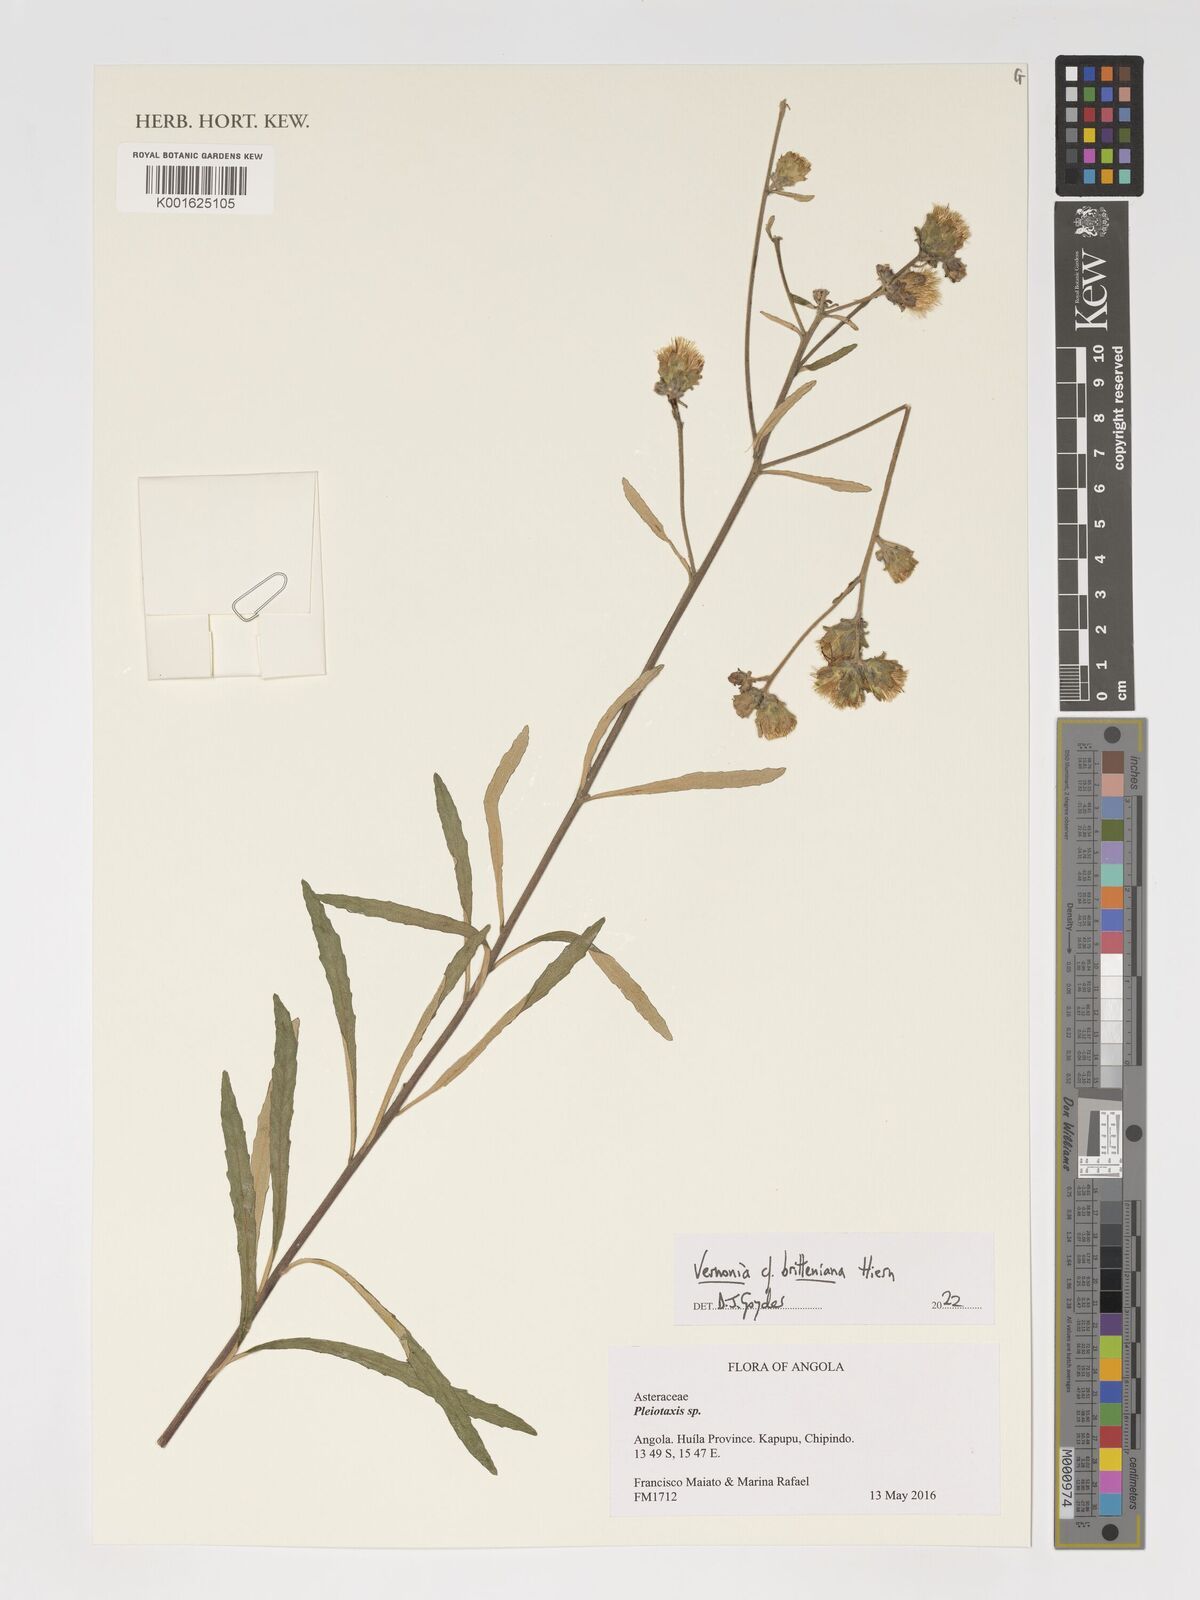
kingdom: Plantae
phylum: Tracheophyta
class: Magnoliopsida
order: Asterales
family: Asteraceae
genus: Vernonia
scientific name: Vernonia britteniana
